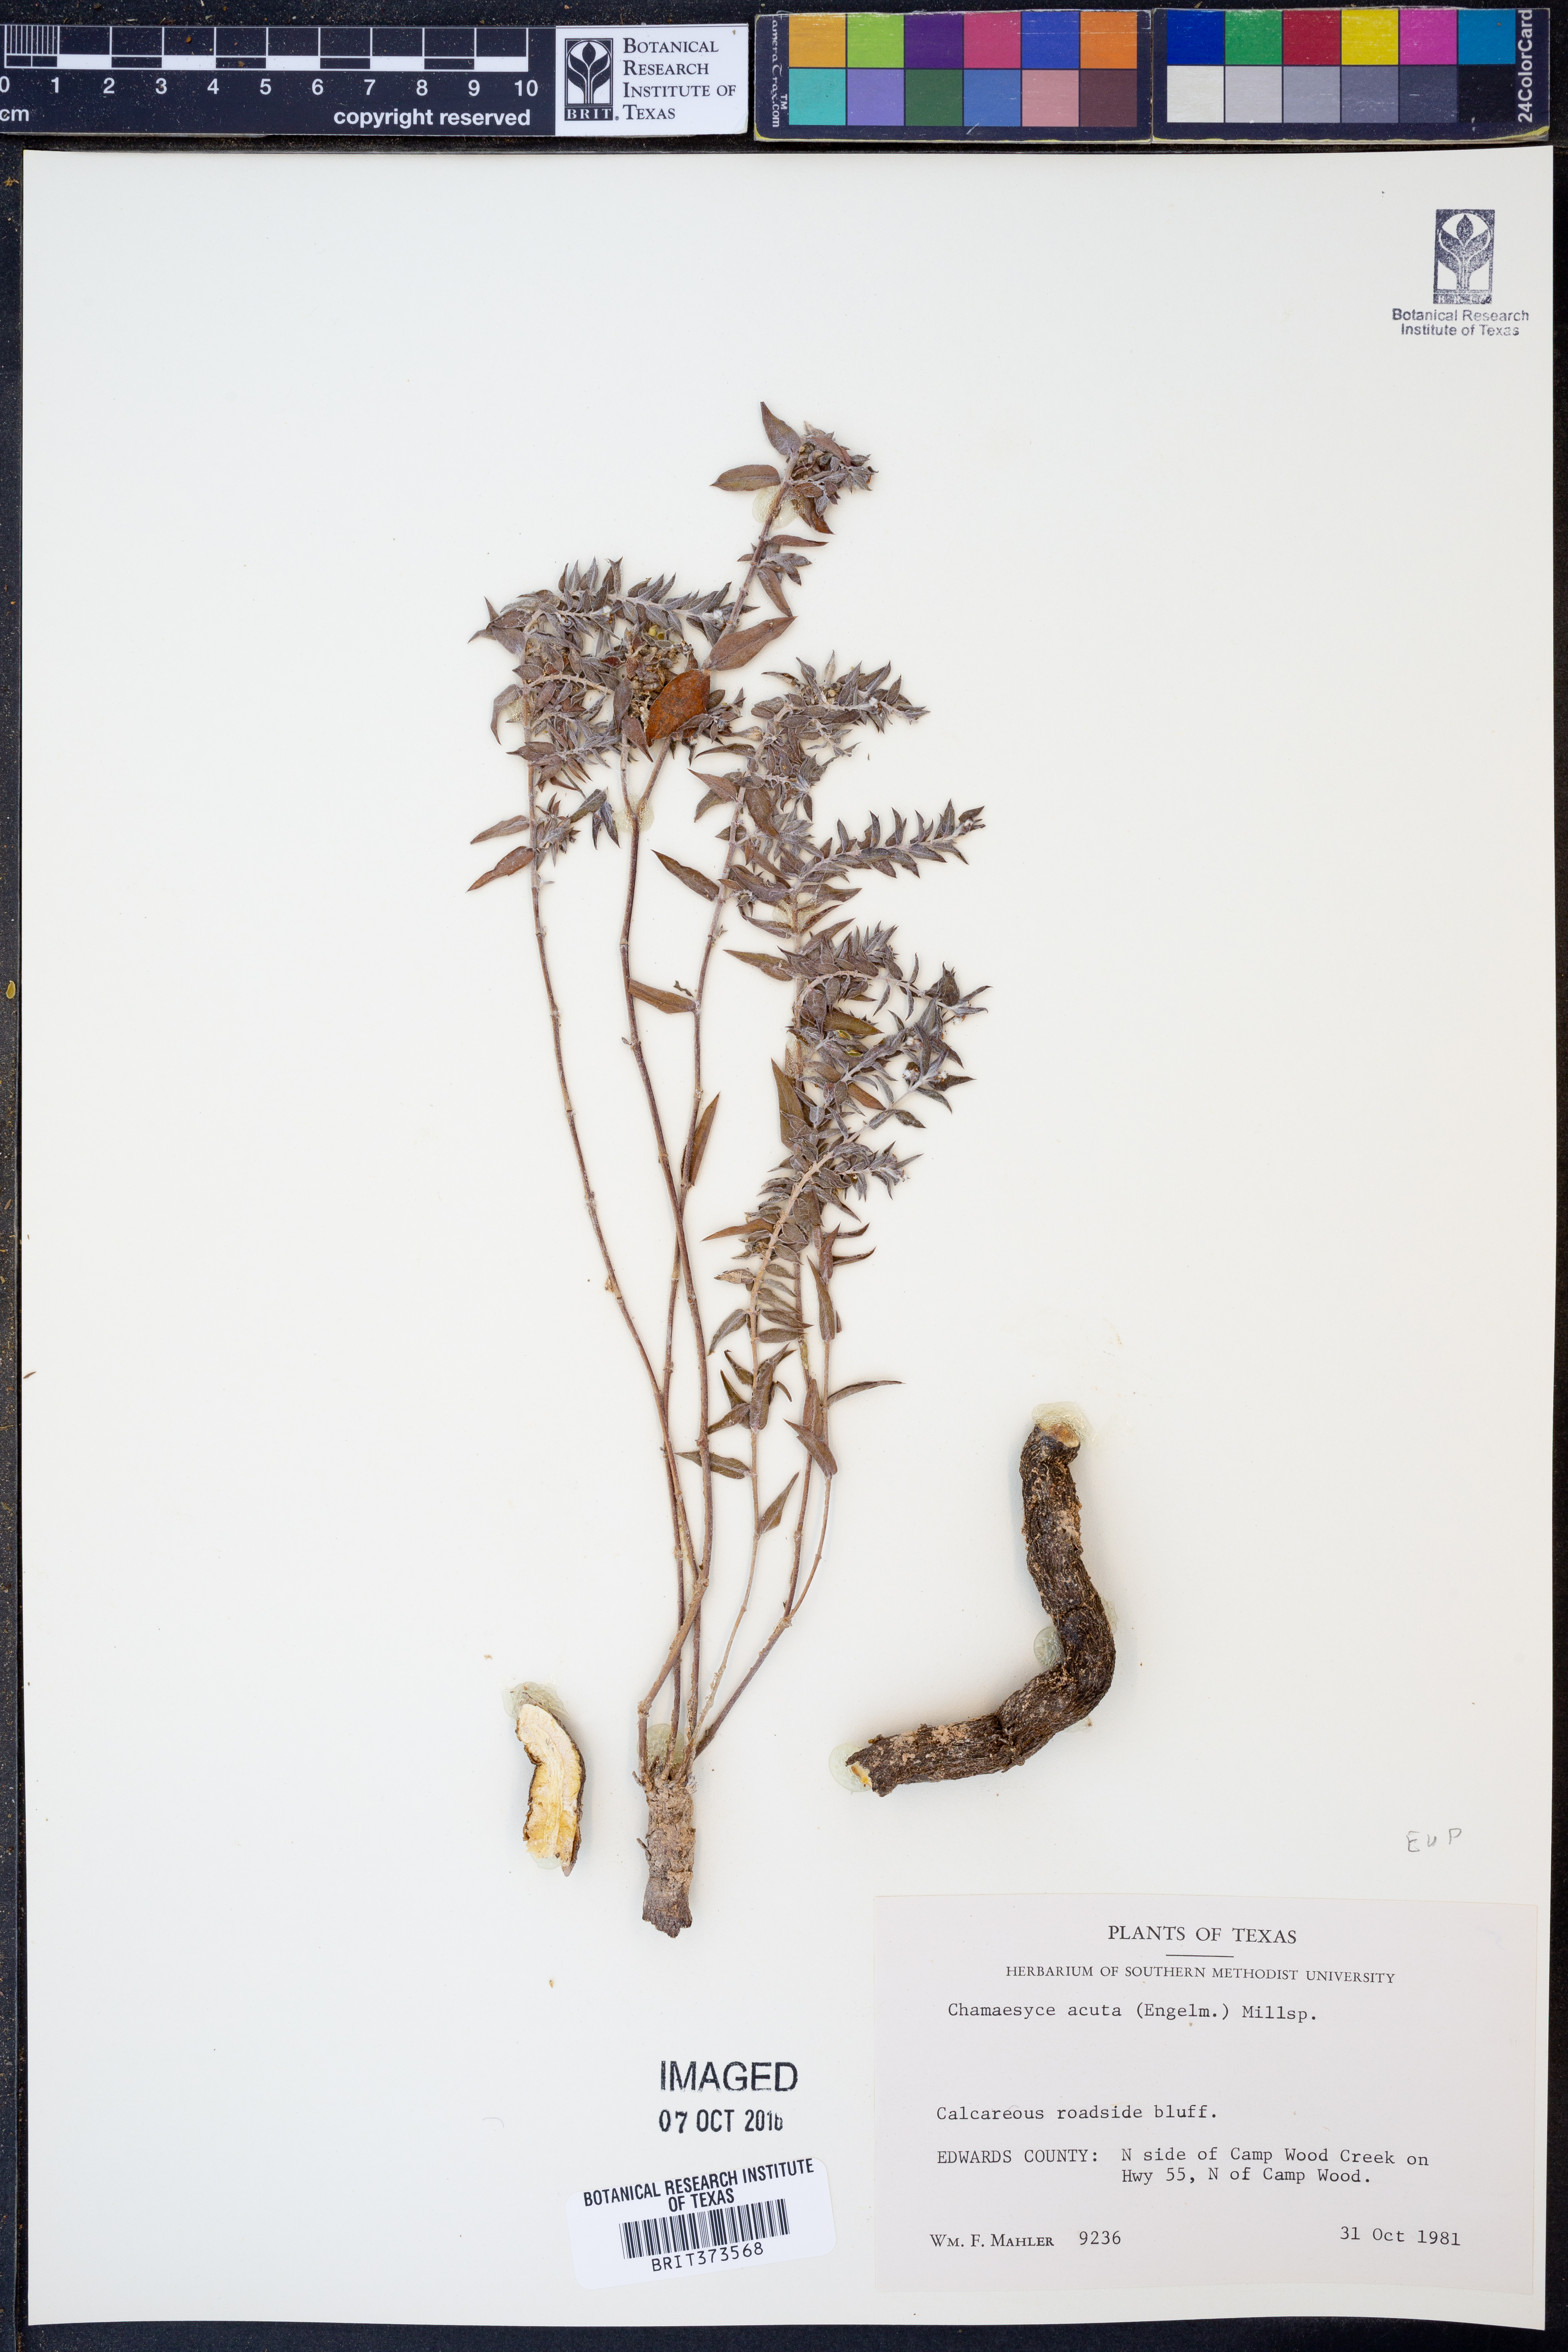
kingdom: Plantae
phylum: Tracheophyta
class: Magnoliopsida
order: Malpighiales
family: Euphorbiaceae
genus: Euphorbia
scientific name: Euphorbia acuta
